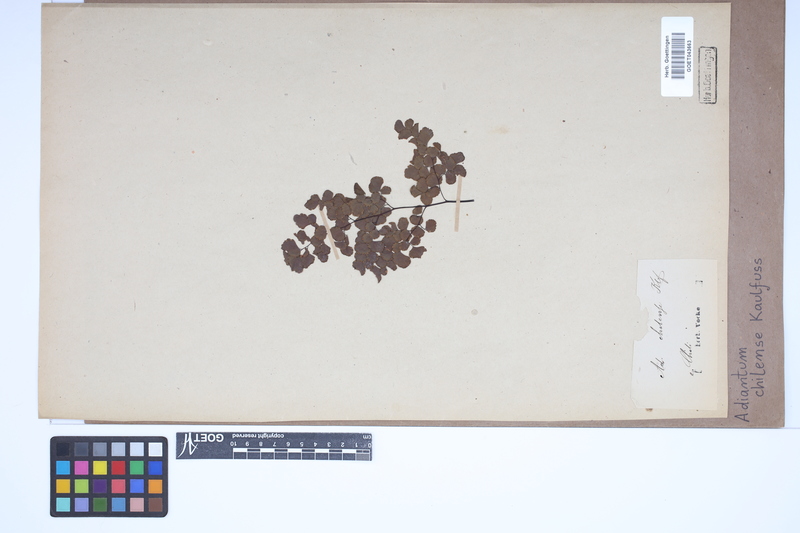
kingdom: Plantae
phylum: Tracheophyta
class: Polypodiopsida
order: Polypodiales
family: Pteridaceae
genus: Adiantum
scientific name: Adiantum chilense
